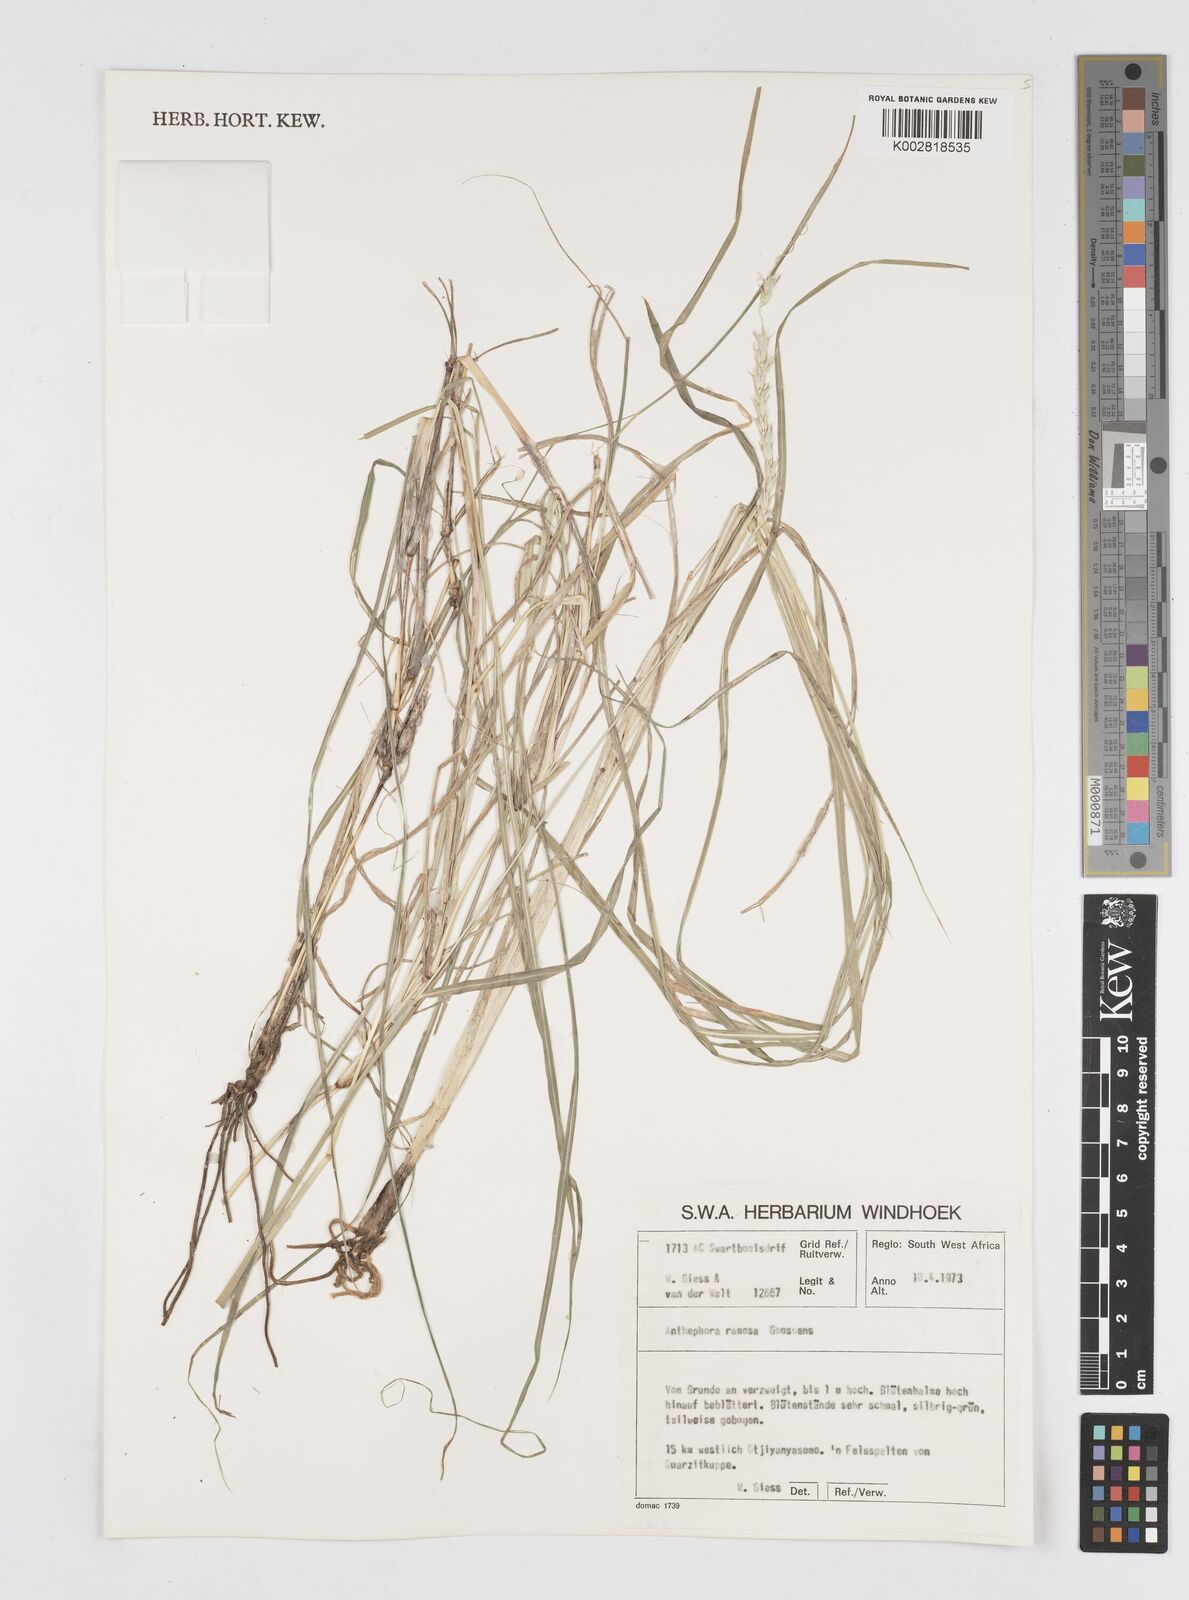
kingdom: Plantae
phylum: Tracheophyta
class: Liliopsida
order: Poales
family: Poaceae
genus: Anthephora
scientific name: Anthephora pubescens
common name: Wool grass
